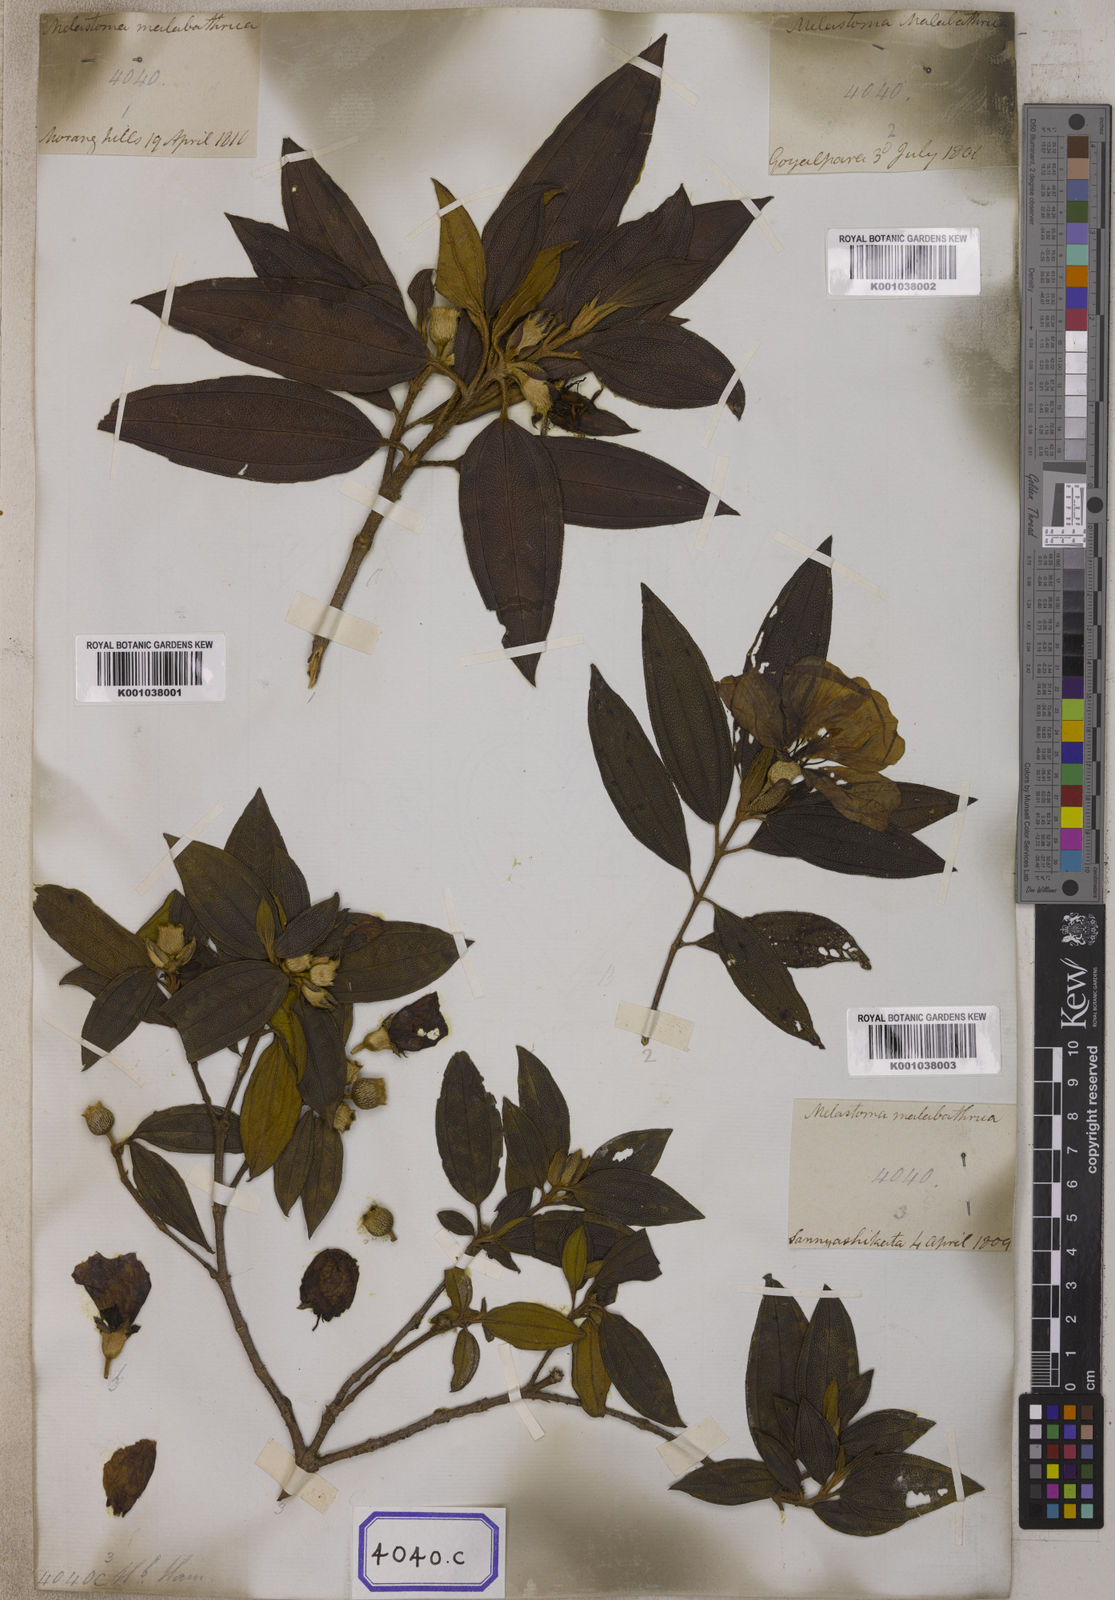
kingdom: Plantae
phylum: Tracheophyta
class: Magnoliopsida
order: Myrtales
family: Melastomataceae
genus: Melastoma
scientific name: Melastoma malabathricum
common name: Indian-rhododendron
